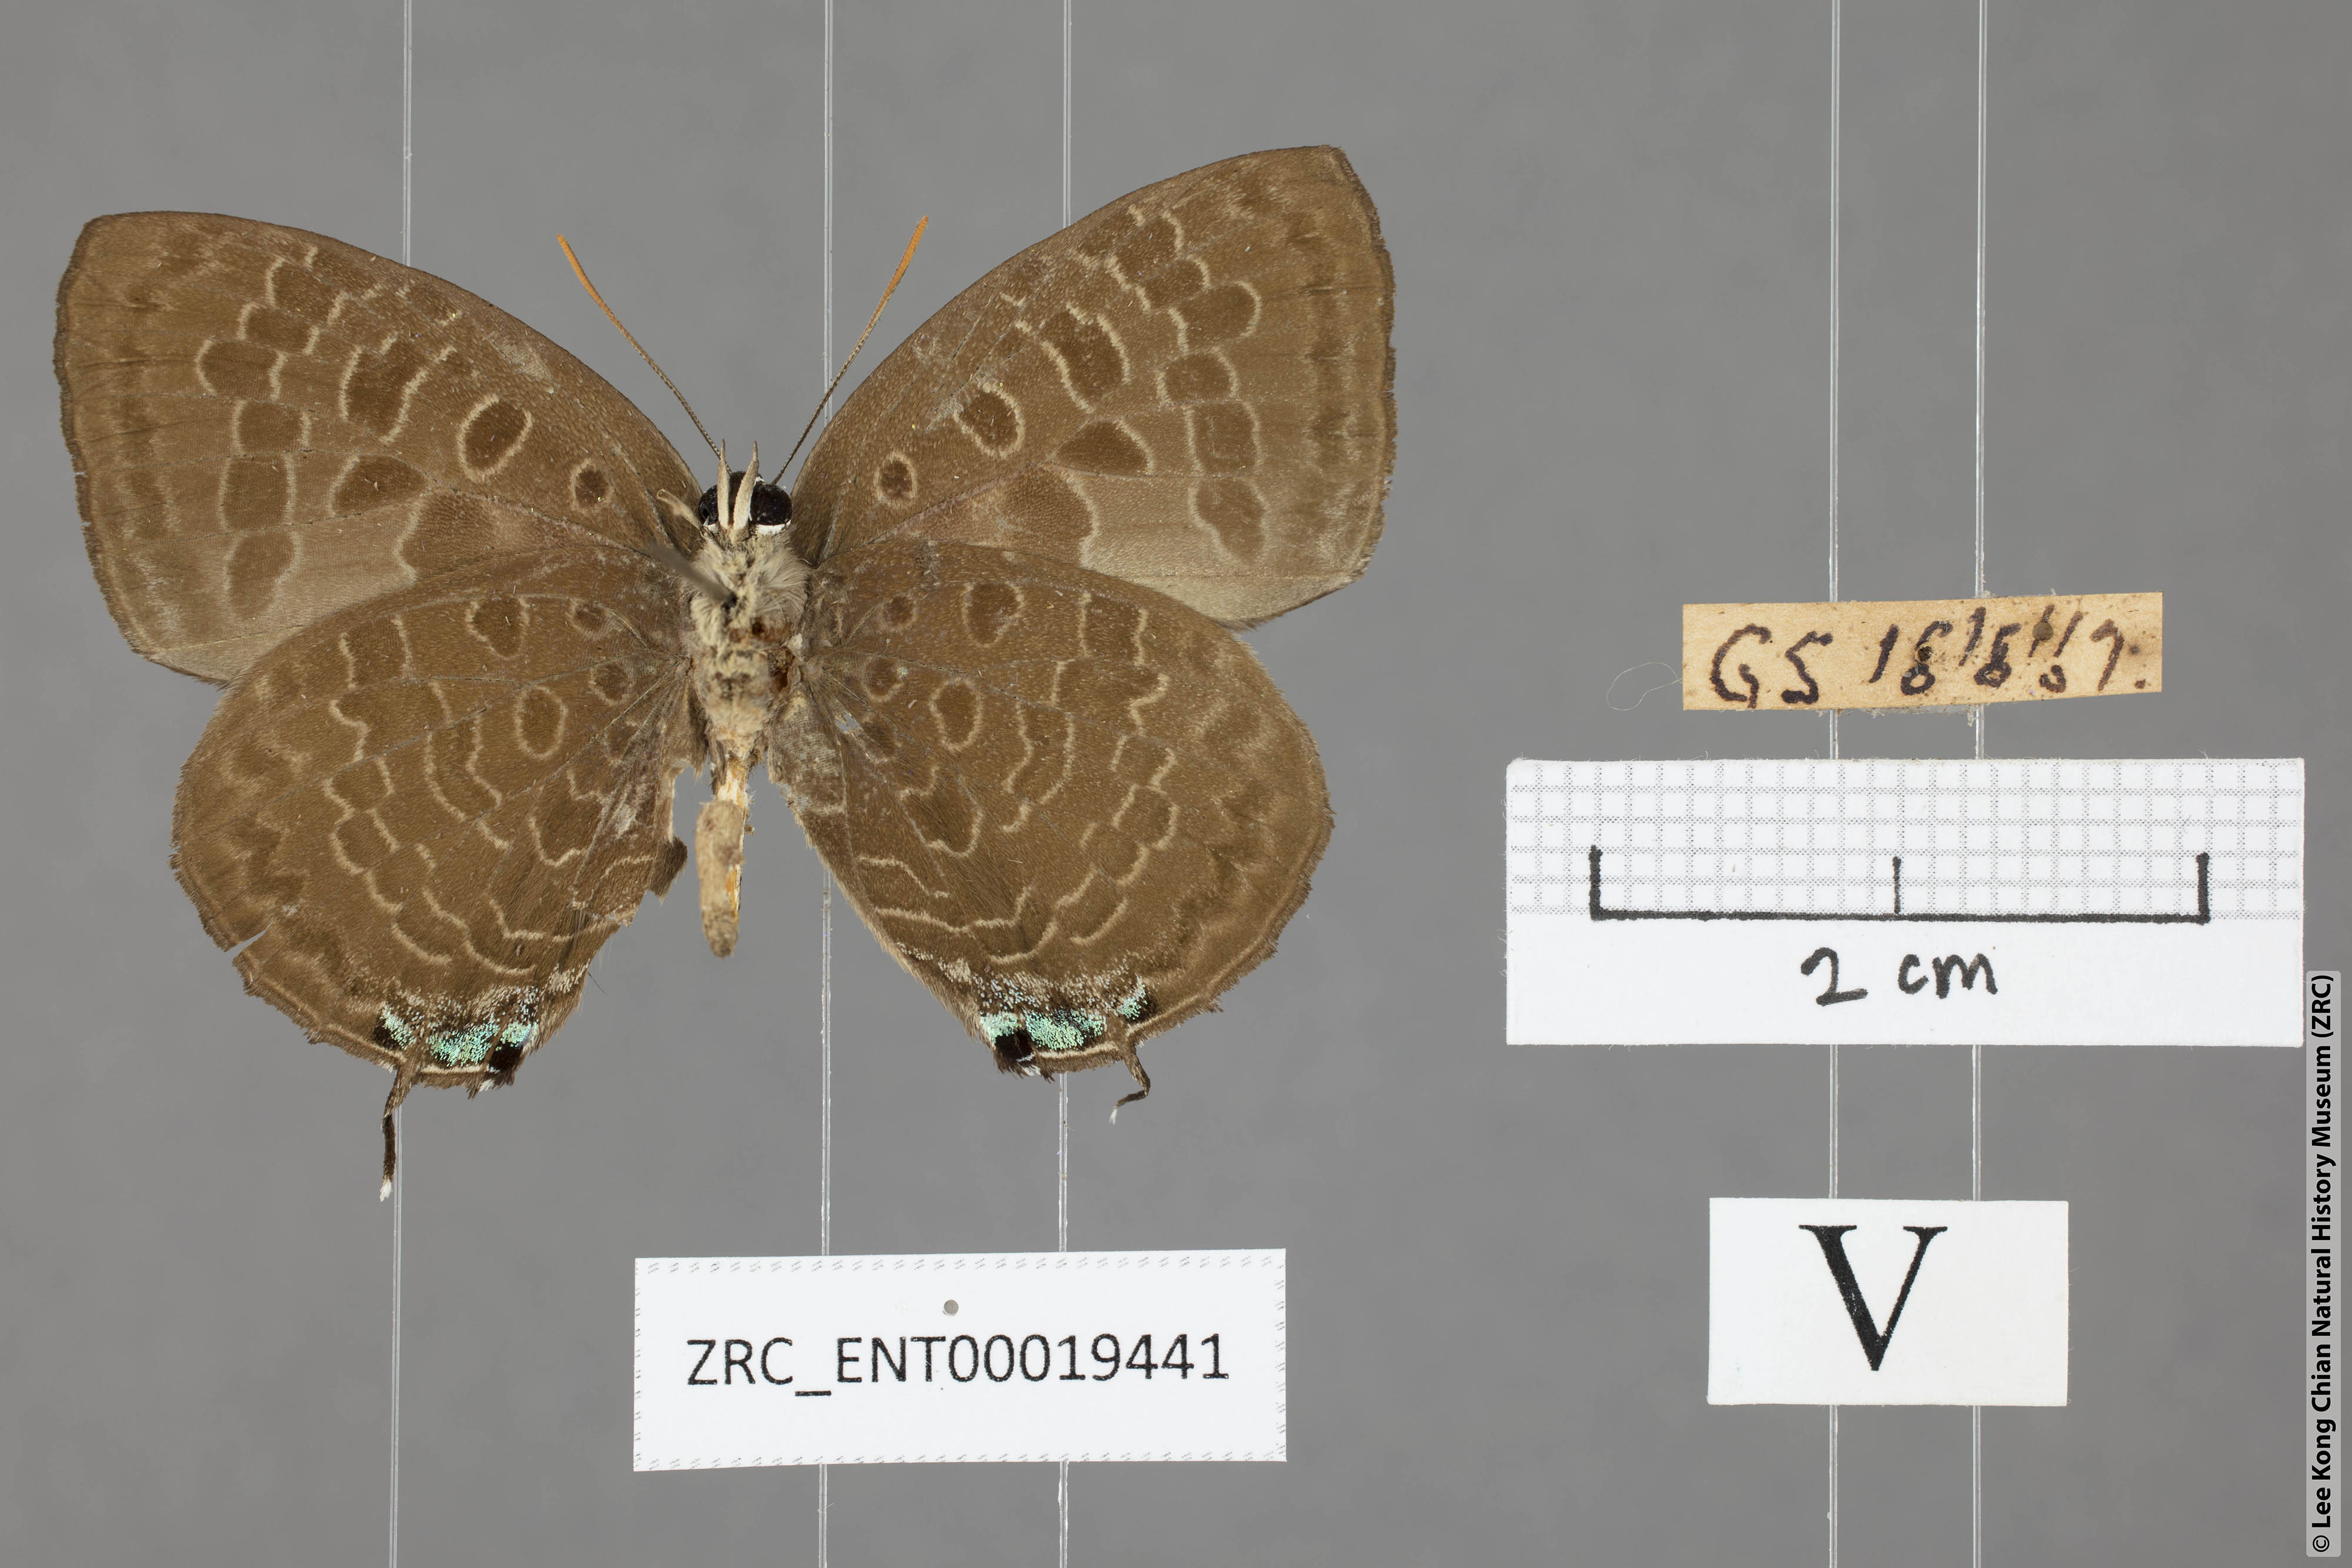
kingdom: Animalia
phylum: Arthropoda
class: Insecta
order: Lepidoptera
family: Lycaenidae
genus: Arhopala
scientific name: Arhopala eumolphus
